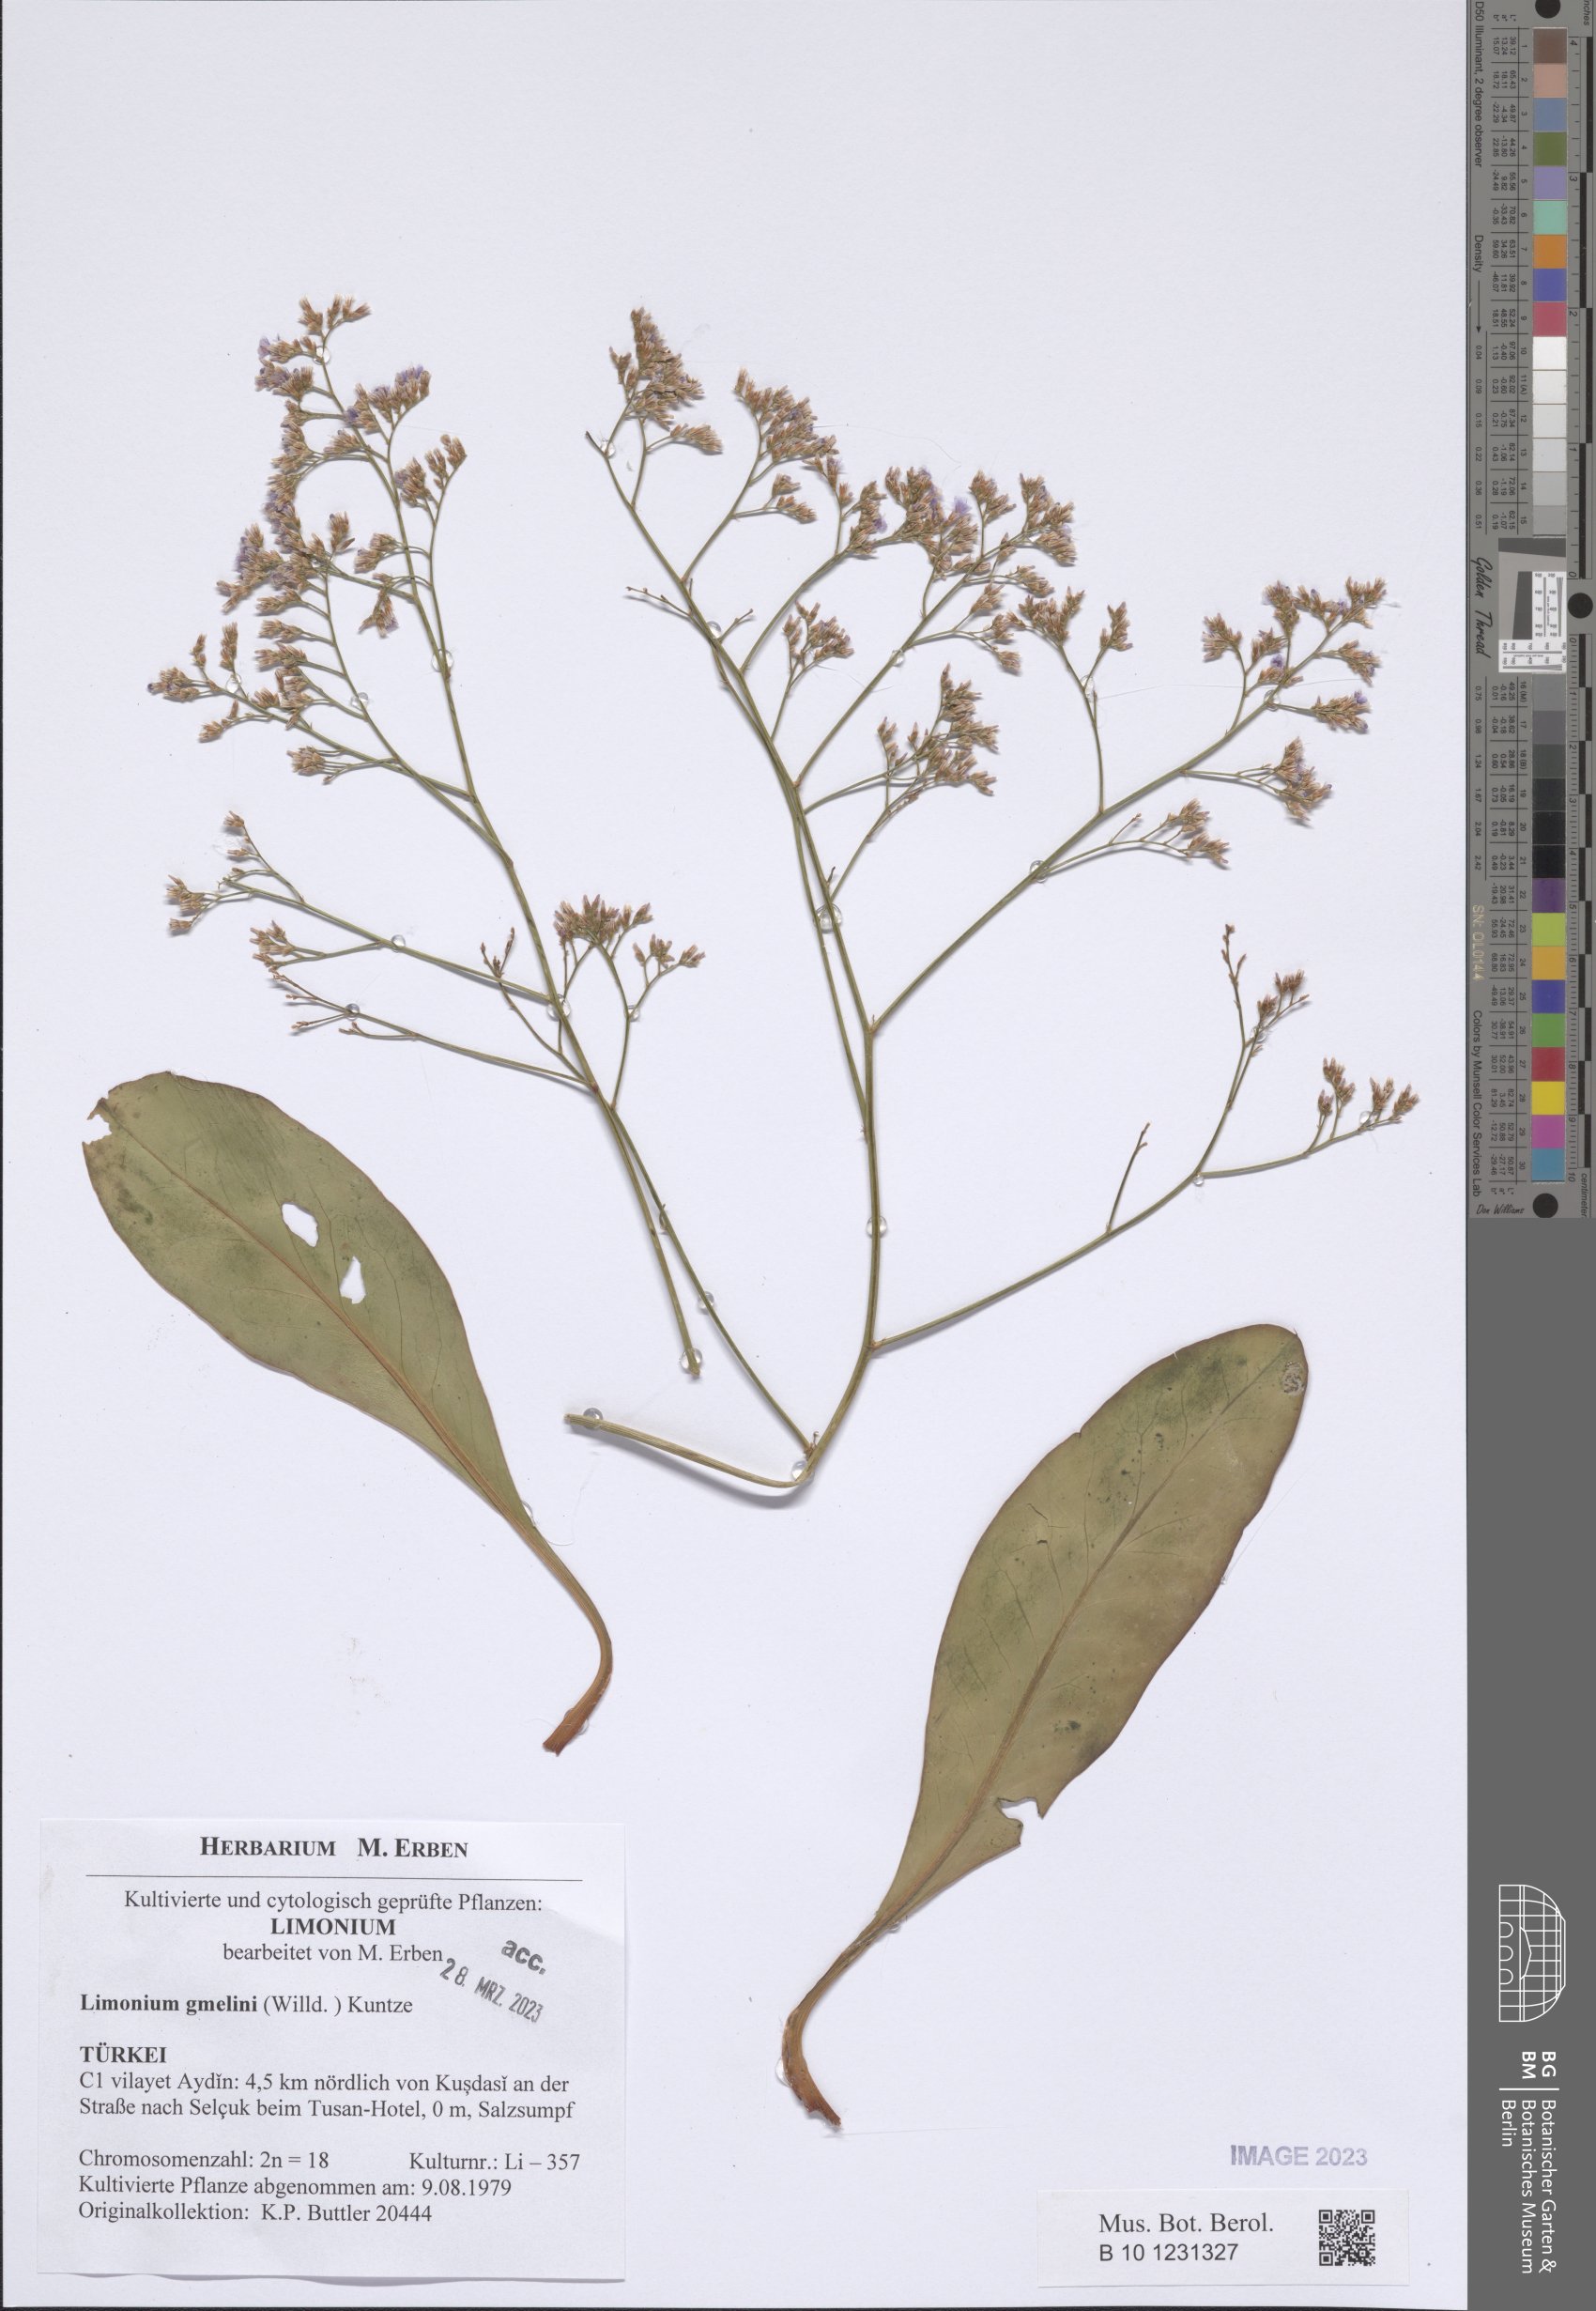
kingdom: Plantae
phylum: Tracheophyta
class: Magnoliopsida
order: Caryophyllales
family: Plumbaginaceae
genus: Limonium
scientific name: Limonium gmelini
